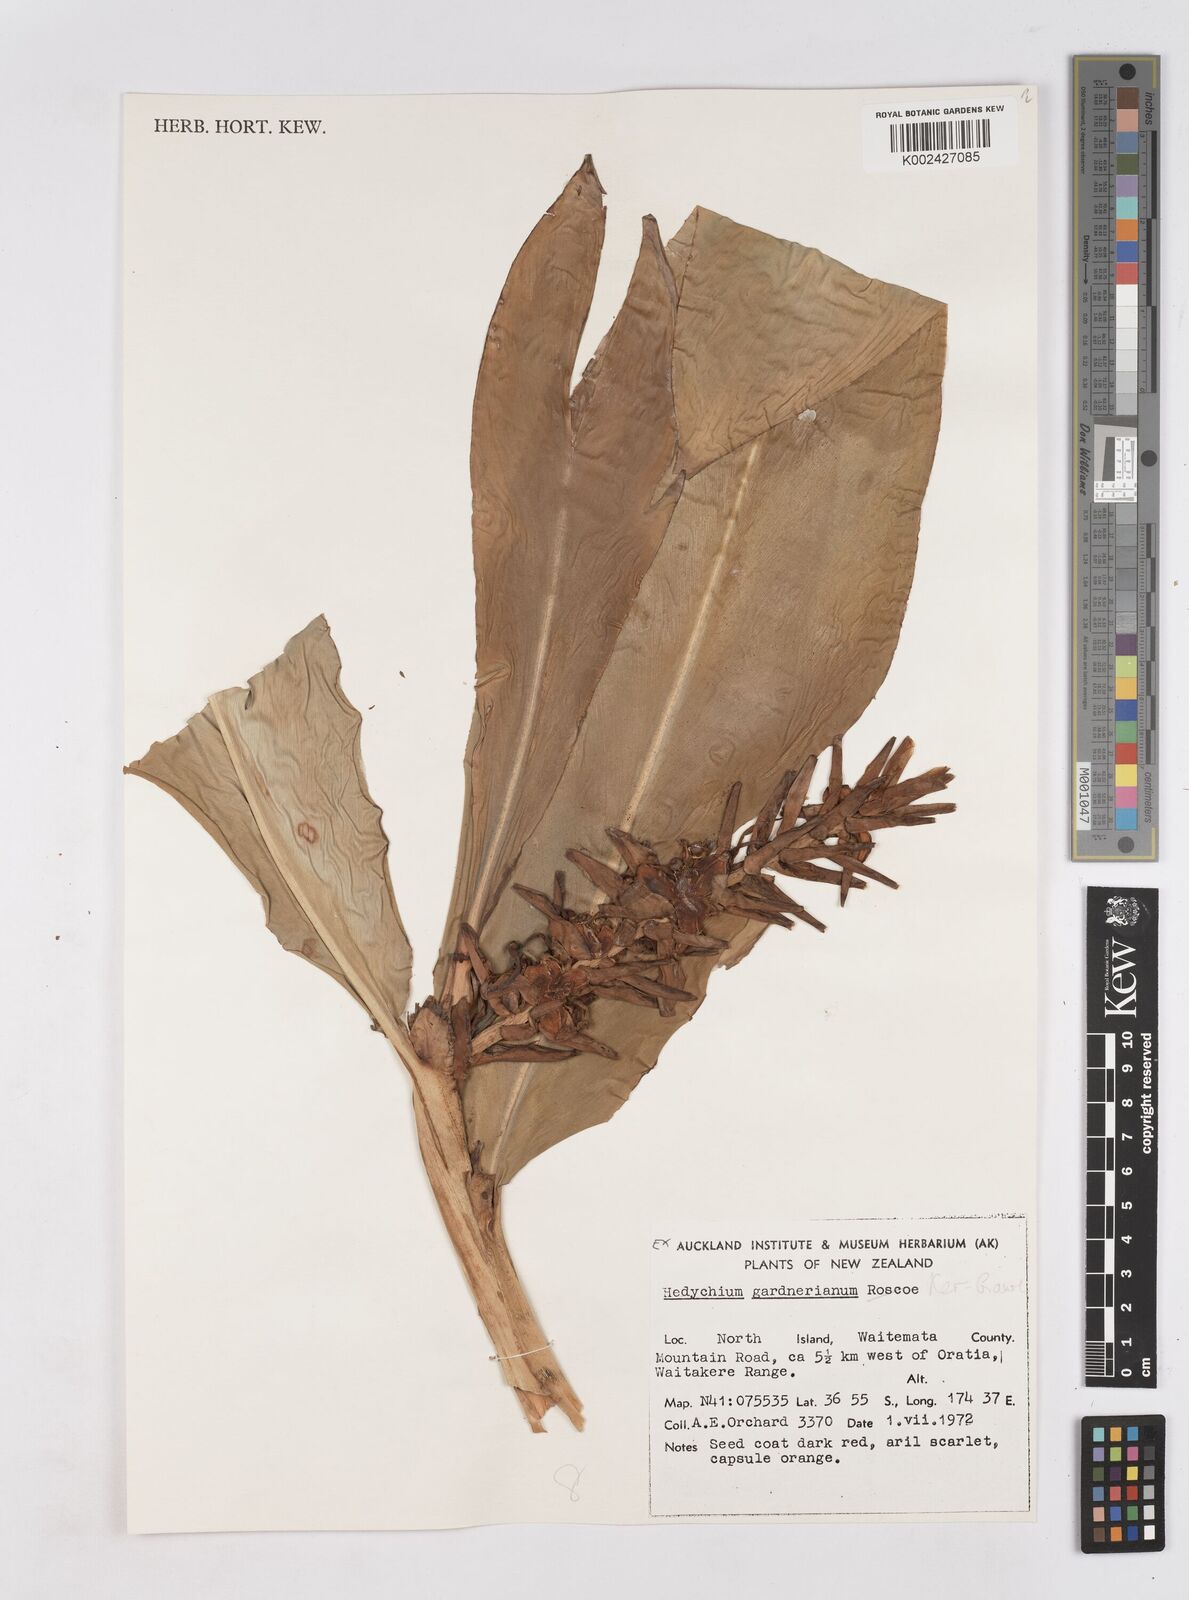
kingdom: Plantae
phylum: Tracheophyta
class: Liliopsida
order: Zingiberales
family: Zingiberaceae
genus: Hedychium
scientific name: Hedychium gardnerianum
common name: Himalayan ginger
